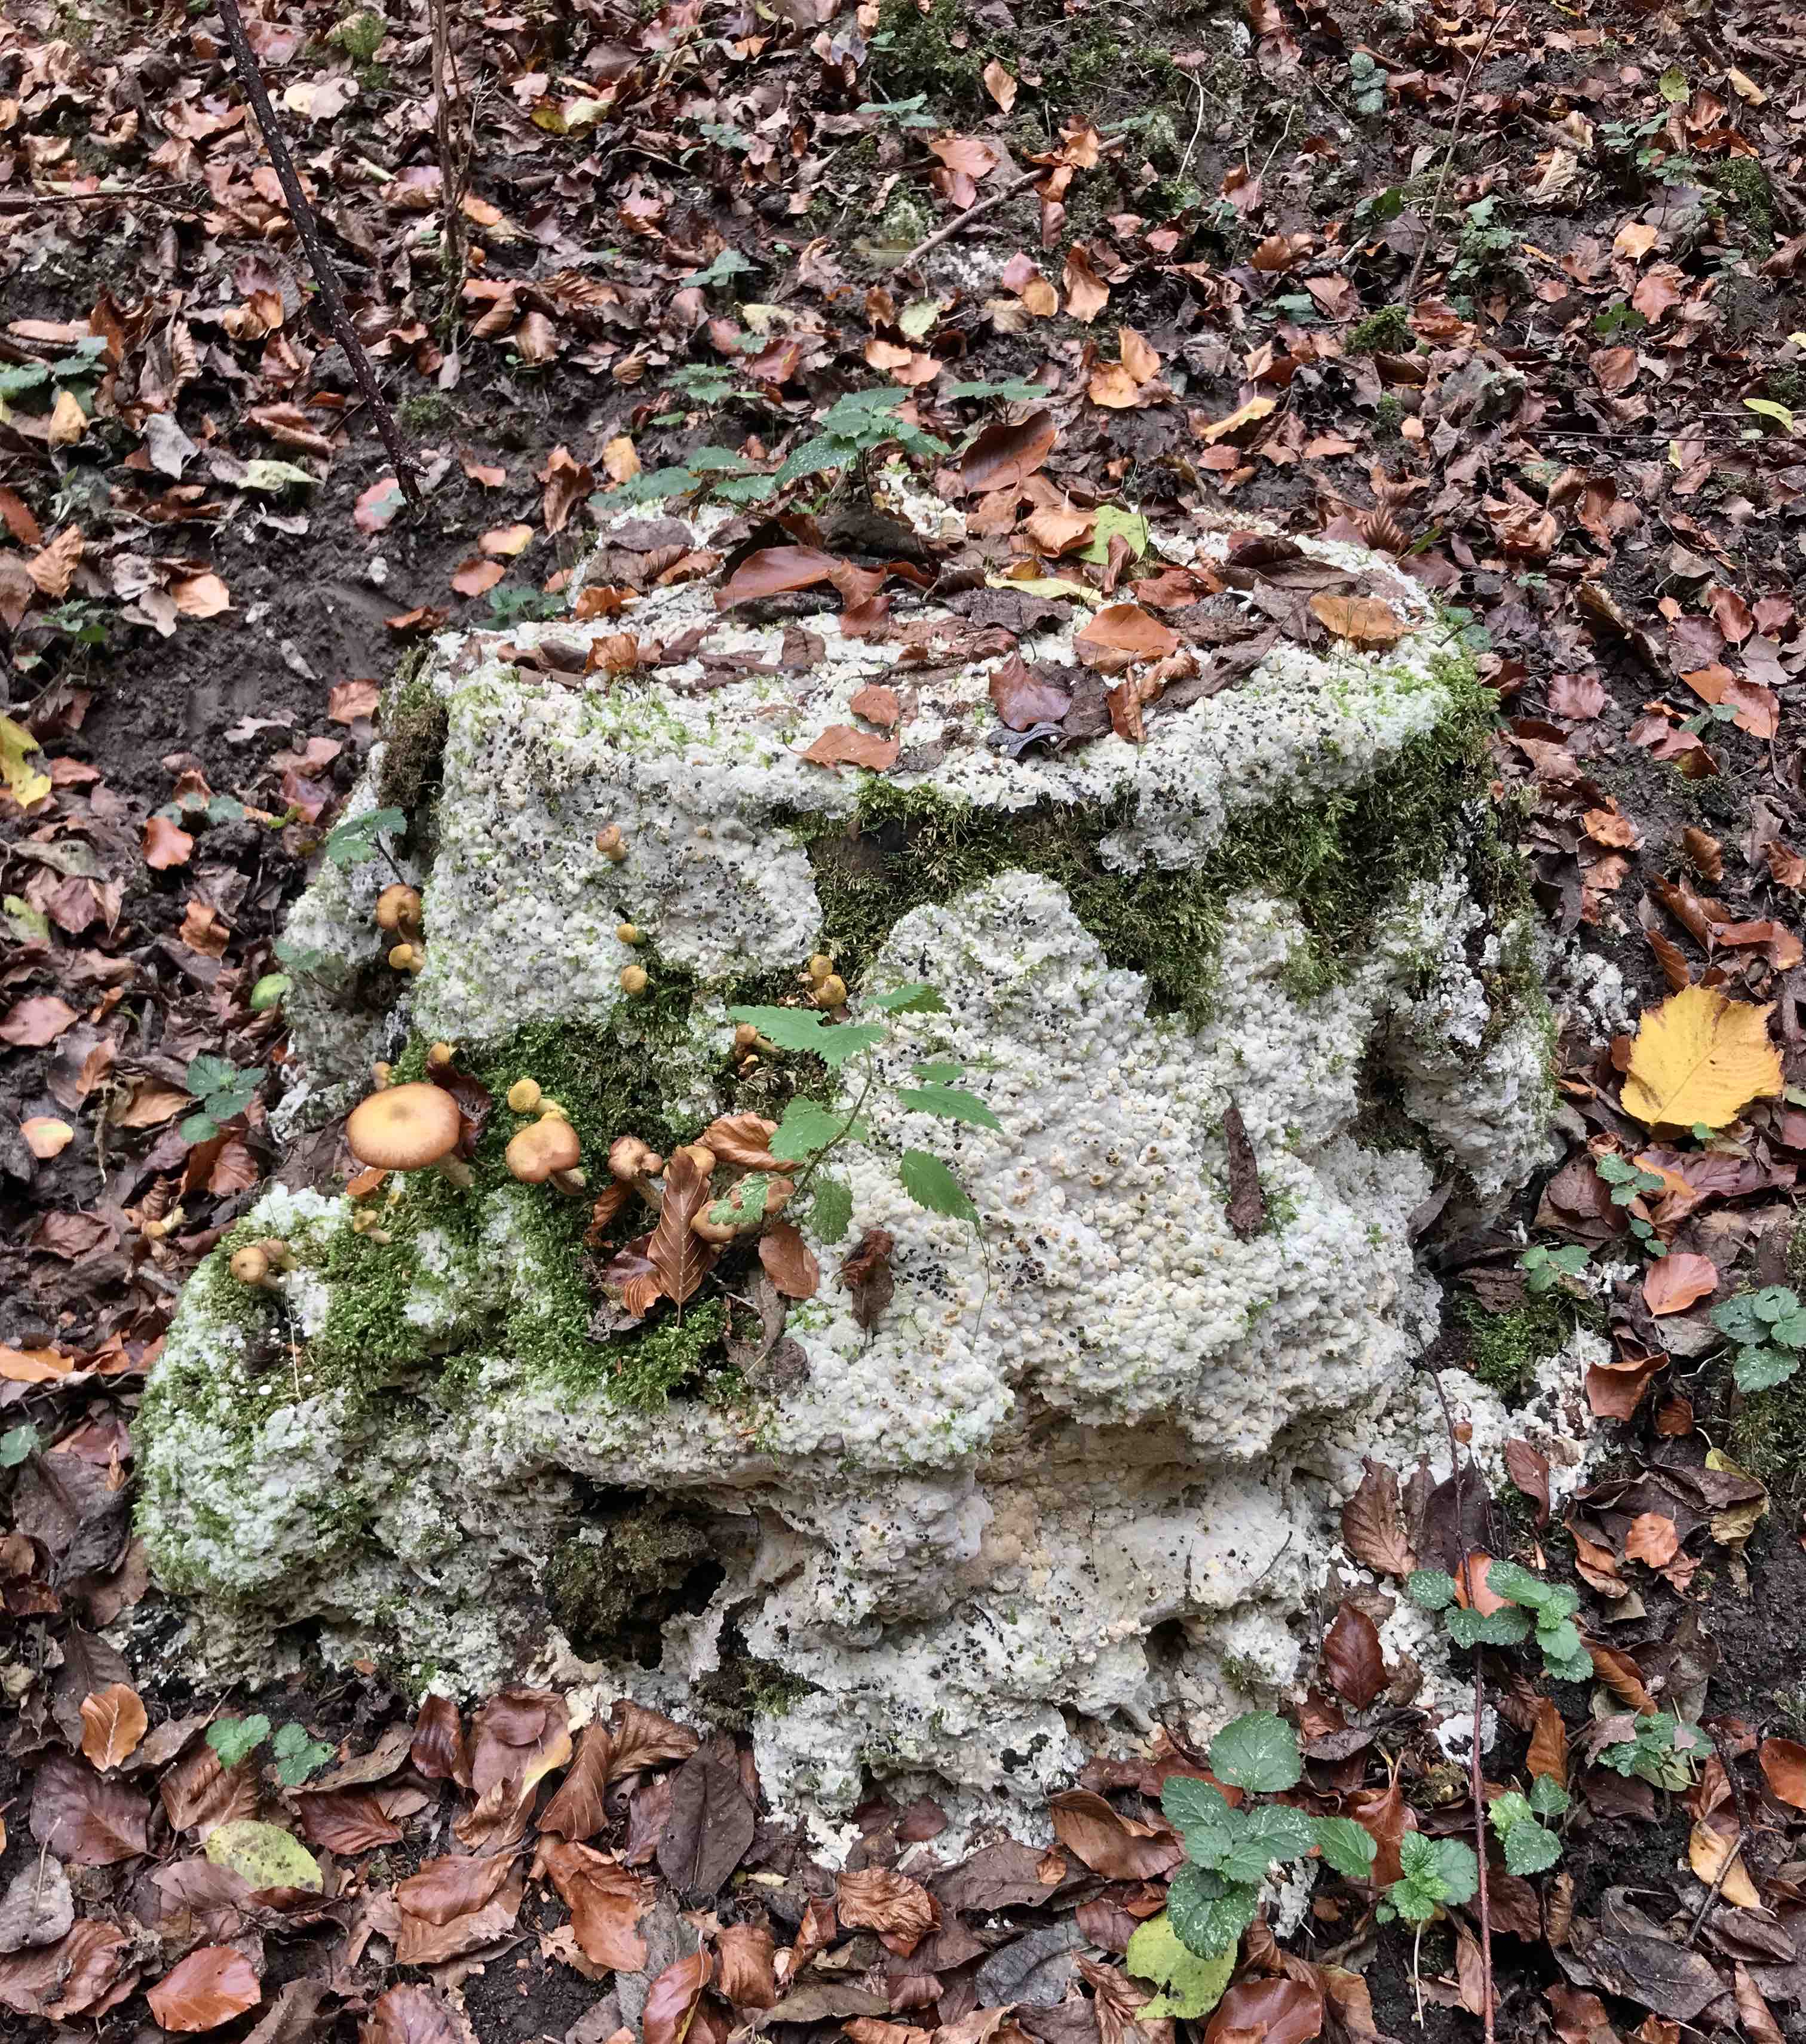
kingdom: Fungi
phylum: Basidiomycota
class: Agaricomycetes
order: Polyporales
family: Meruliaceae
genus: Physisporinus
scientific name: Physisporinus vitreus
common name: mastesvamp
